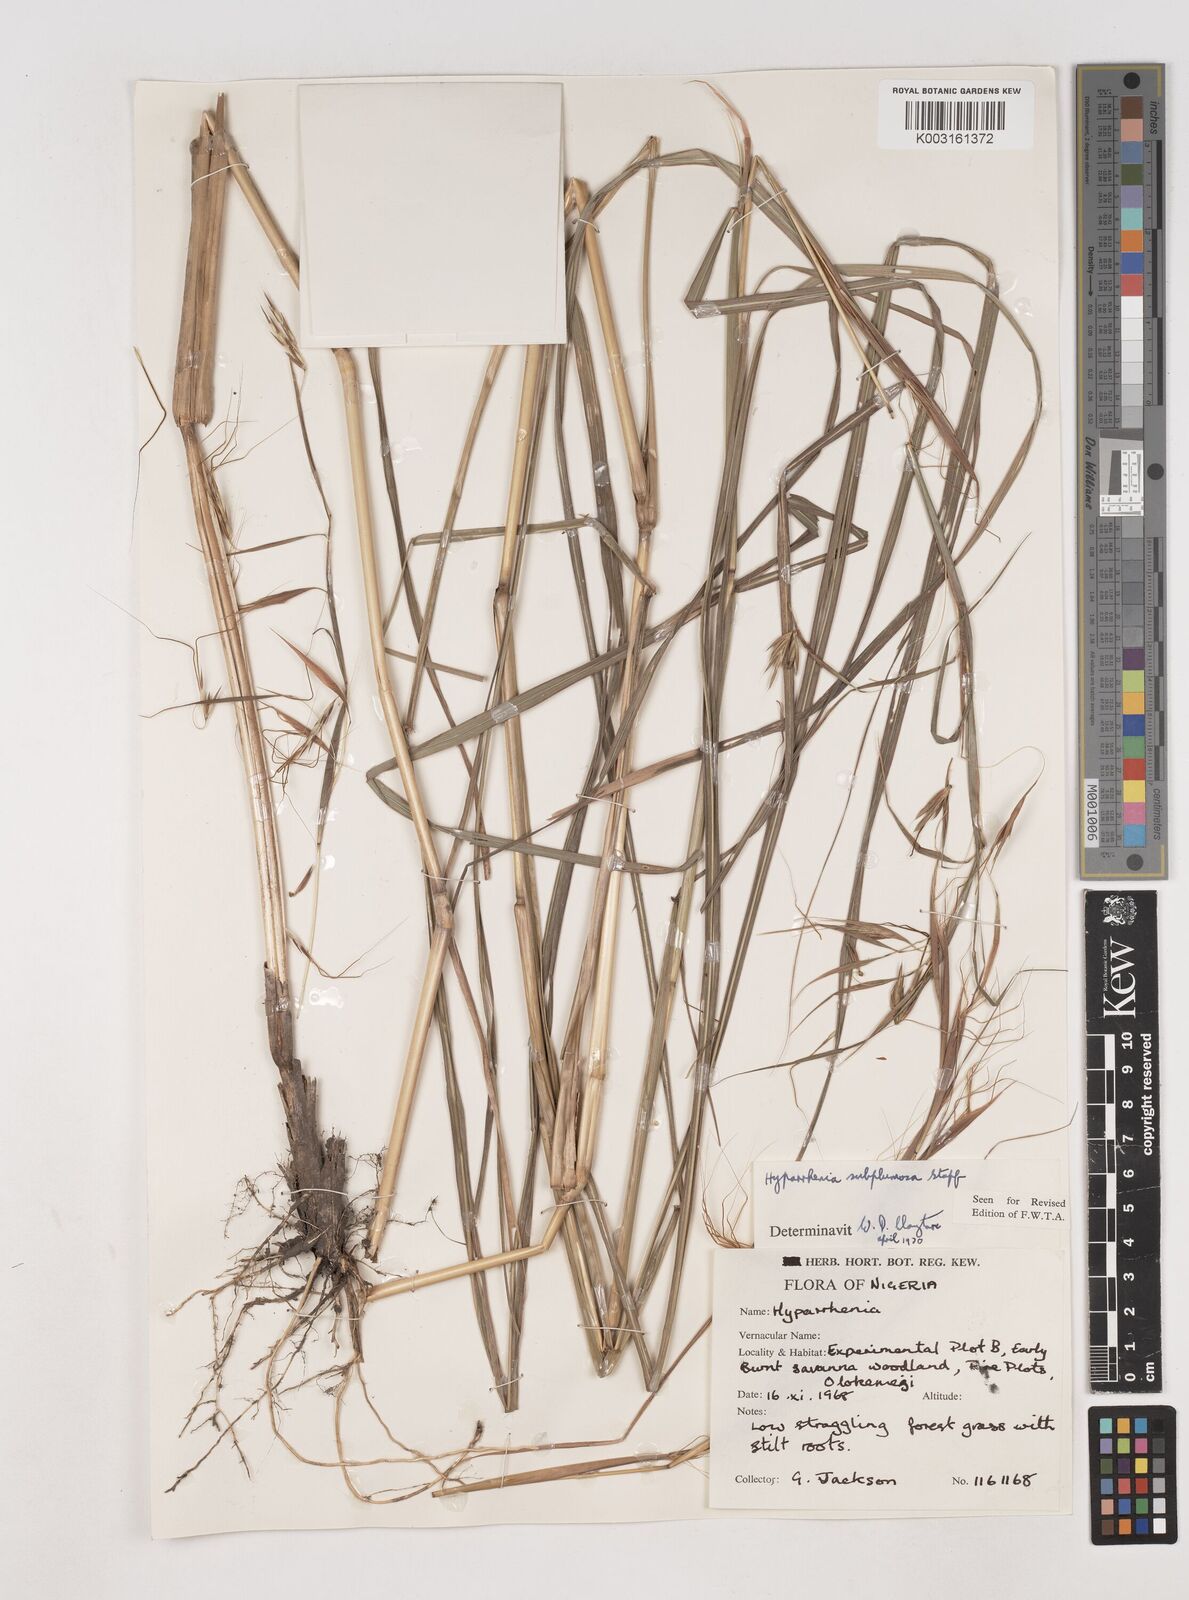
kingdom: Plantae
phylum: Tracheophyta
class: Liliopsida
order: Poales
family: Poaceae
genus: Hyparrhenia
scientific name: Hyparrhenia subplumosa
